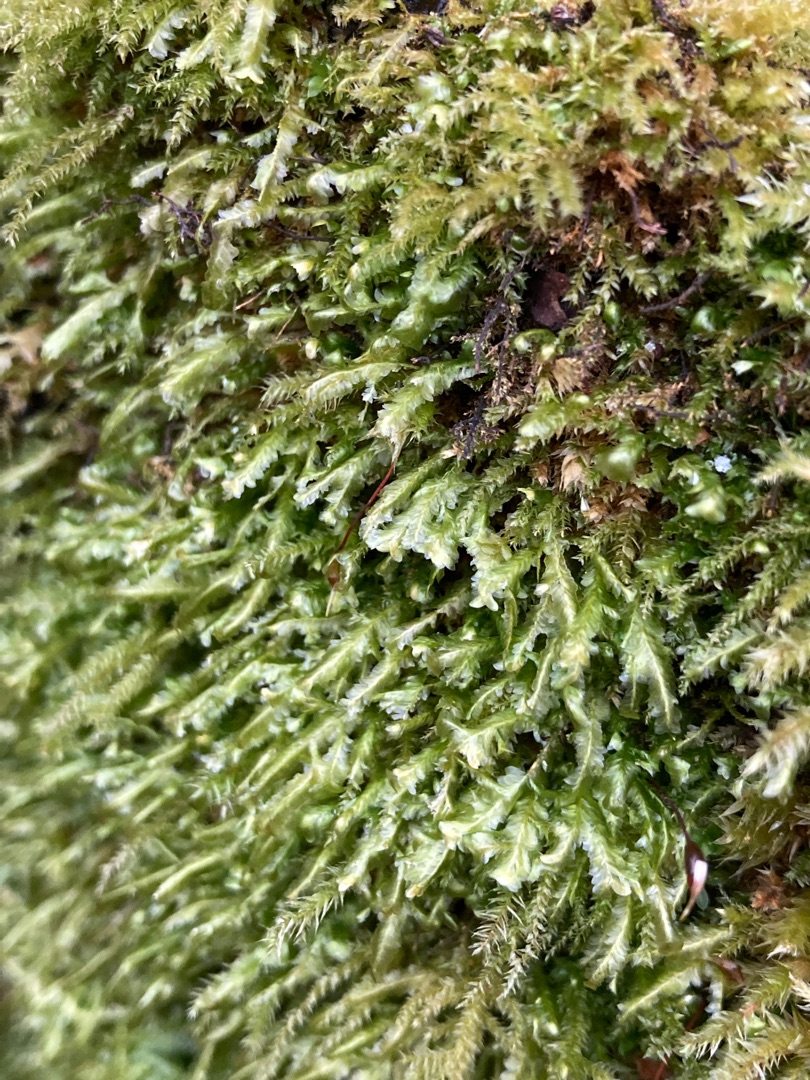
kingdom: Plantae
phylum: Bryophyta
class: Bryopsida
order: Hypnales
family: Neckeraceae
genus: Homalia
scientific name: Homalia trichomanoides
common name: Skov-tungemos
